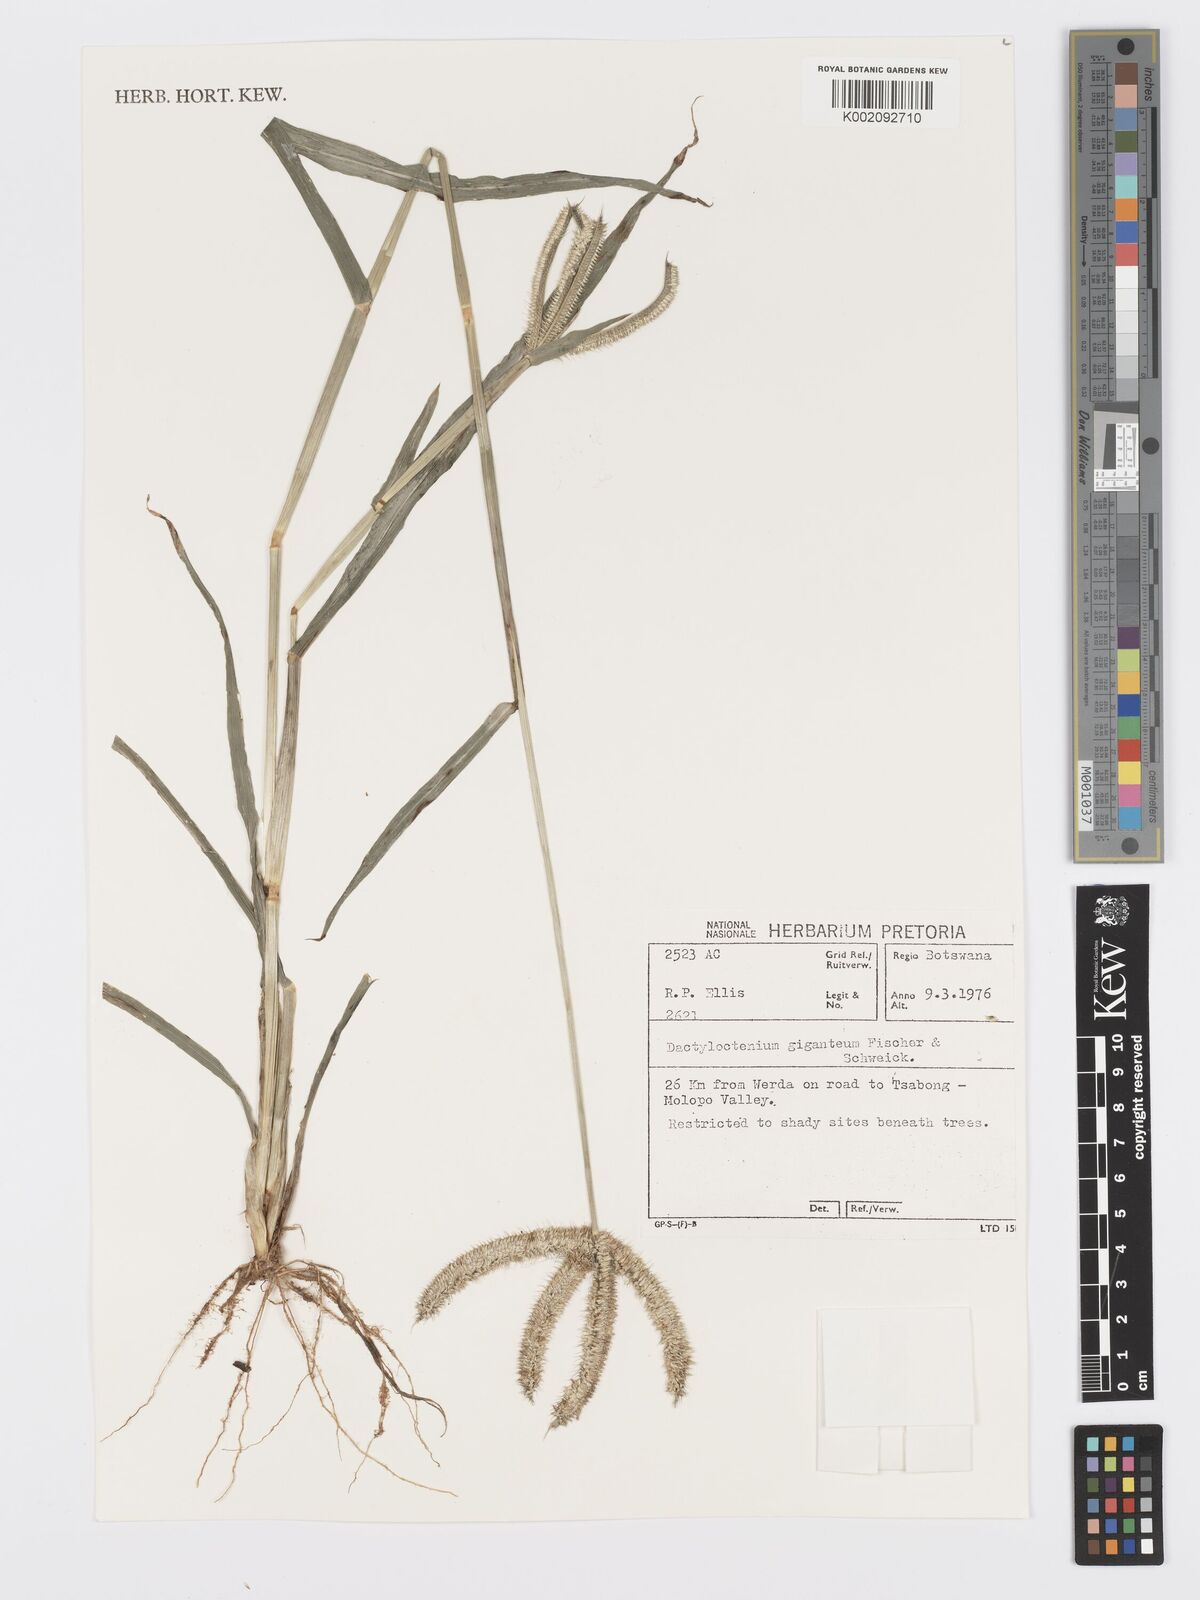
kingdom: Plantae
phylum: Tracheophyta
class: Liliopsida
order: Poales
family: Poaceae
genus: Dactyloctenium
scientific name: Dactyloctenium giganteum
